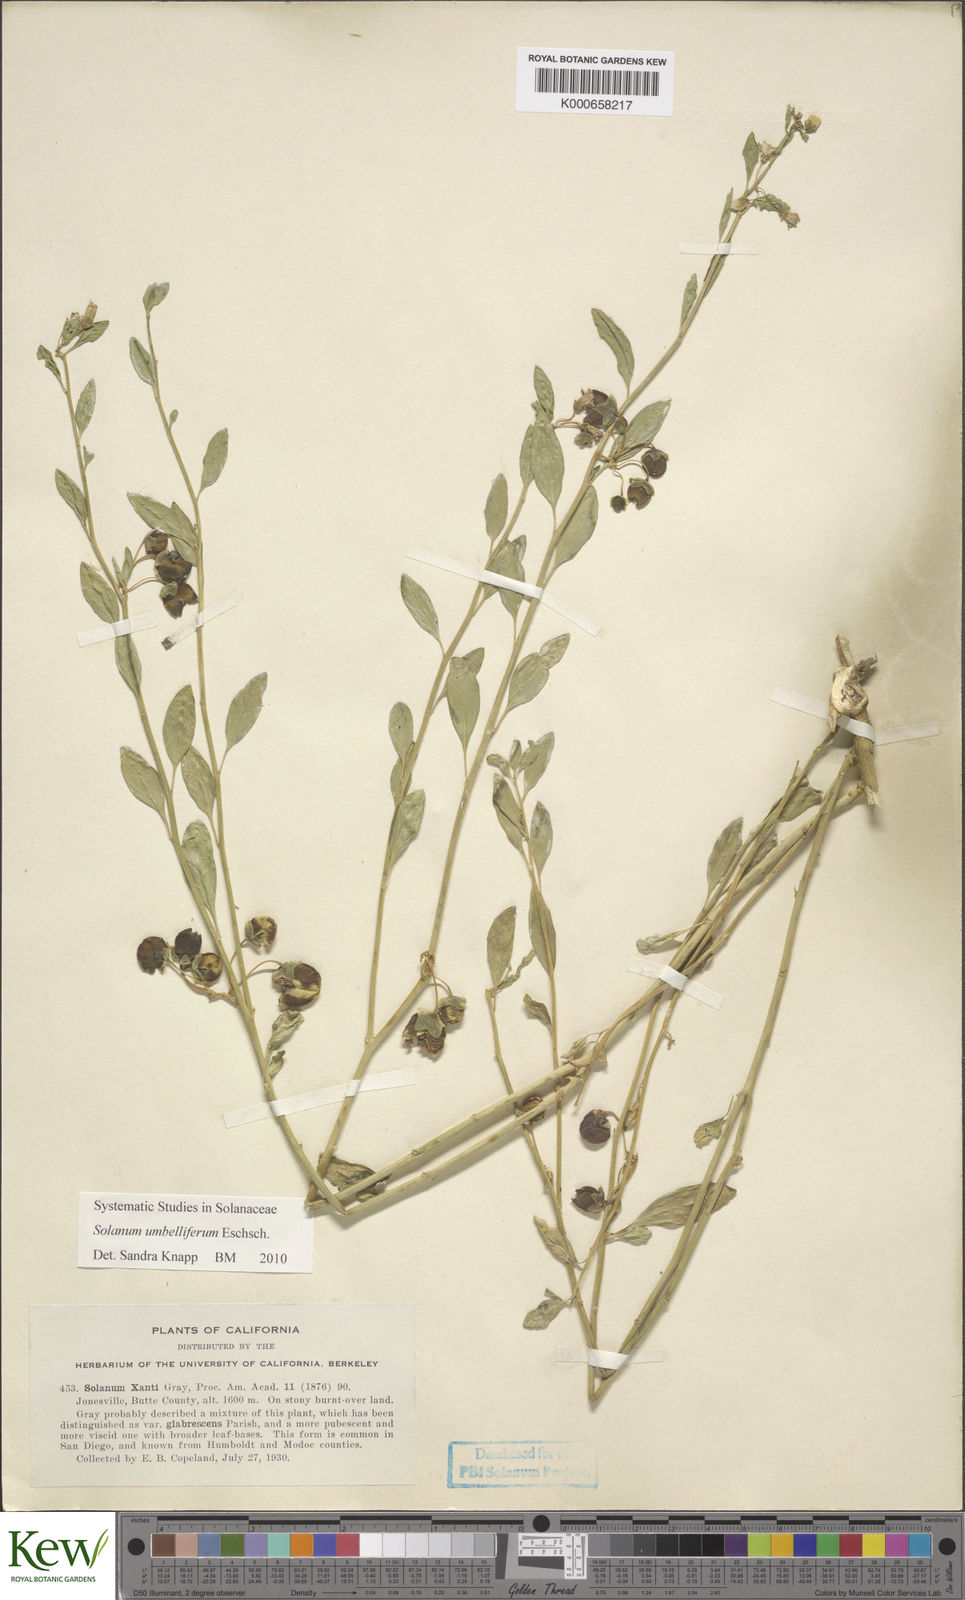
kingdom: Plantae
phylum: Tracheophyta
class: Magnoliopsida
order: Solanales
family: Solanaceae
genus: Solanum
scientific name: Solanum umbelliferum
